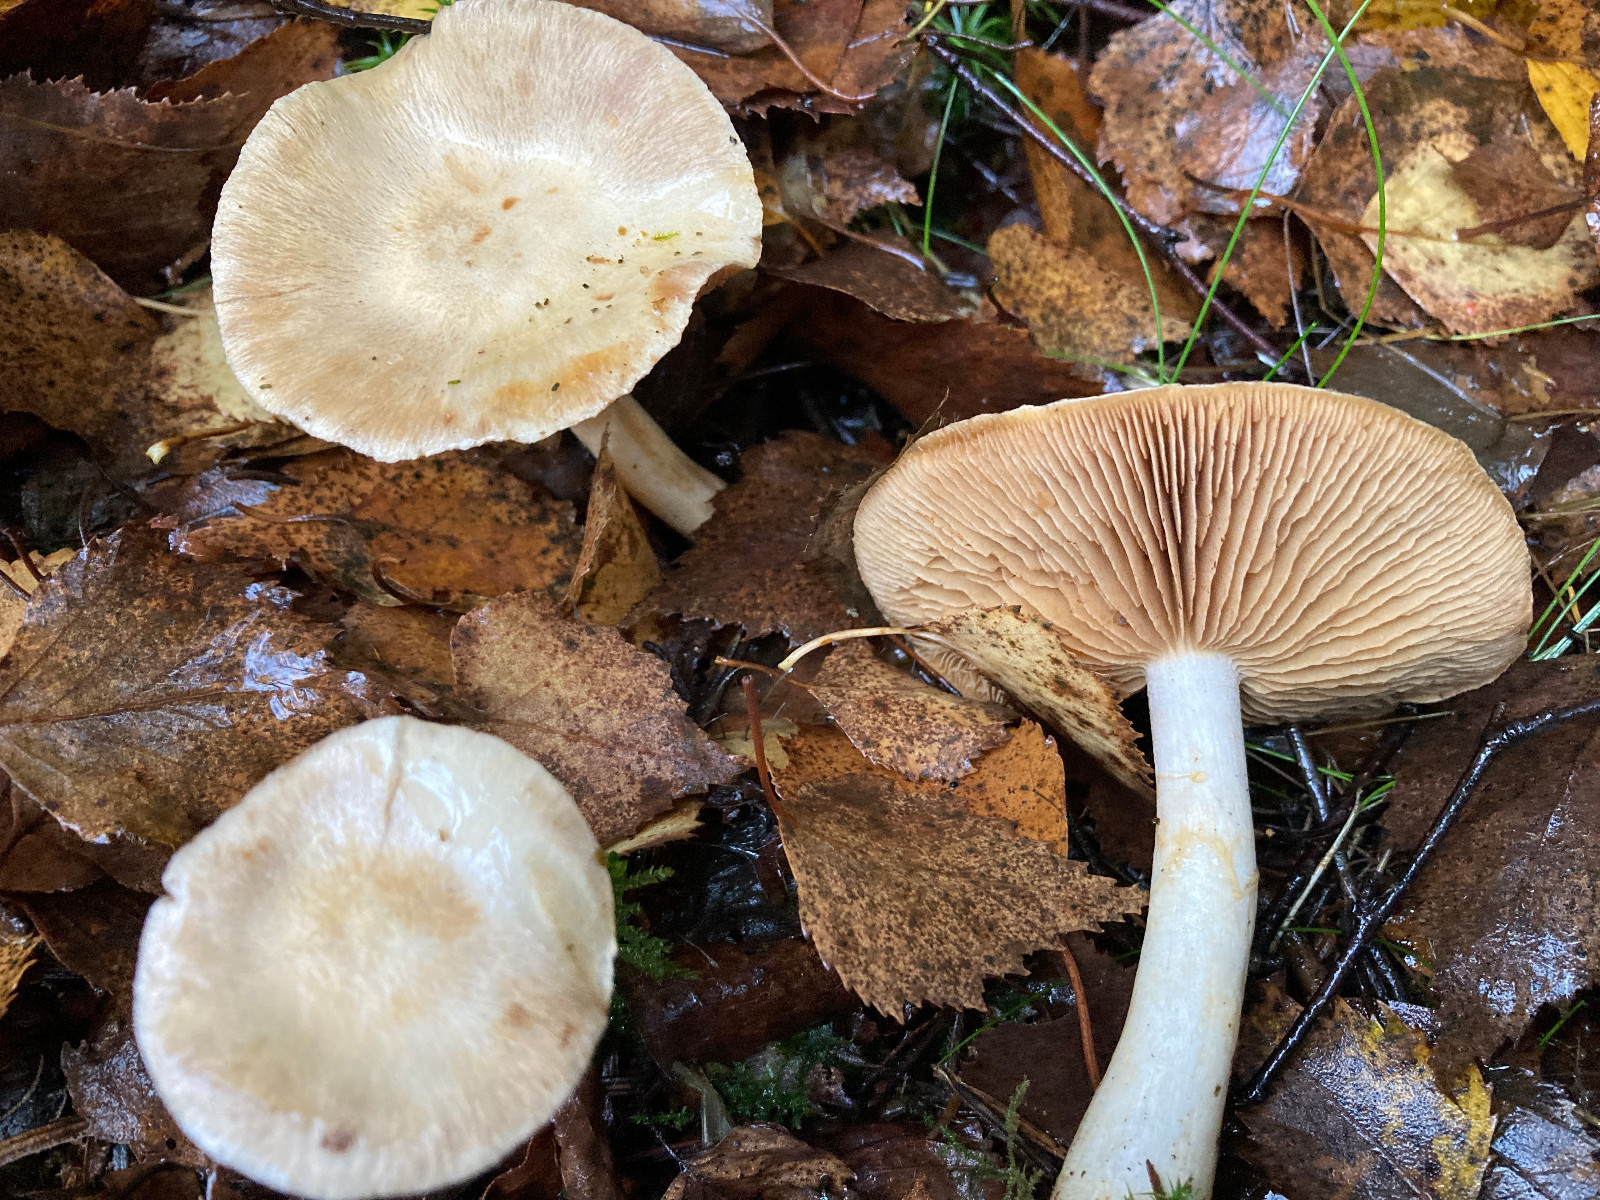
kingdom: Fungi
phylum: Basidiomycota
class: Agaricomycetes
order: Agaricales
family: Cortinariaceae
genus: Cortinarius
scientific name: Cortinarius
